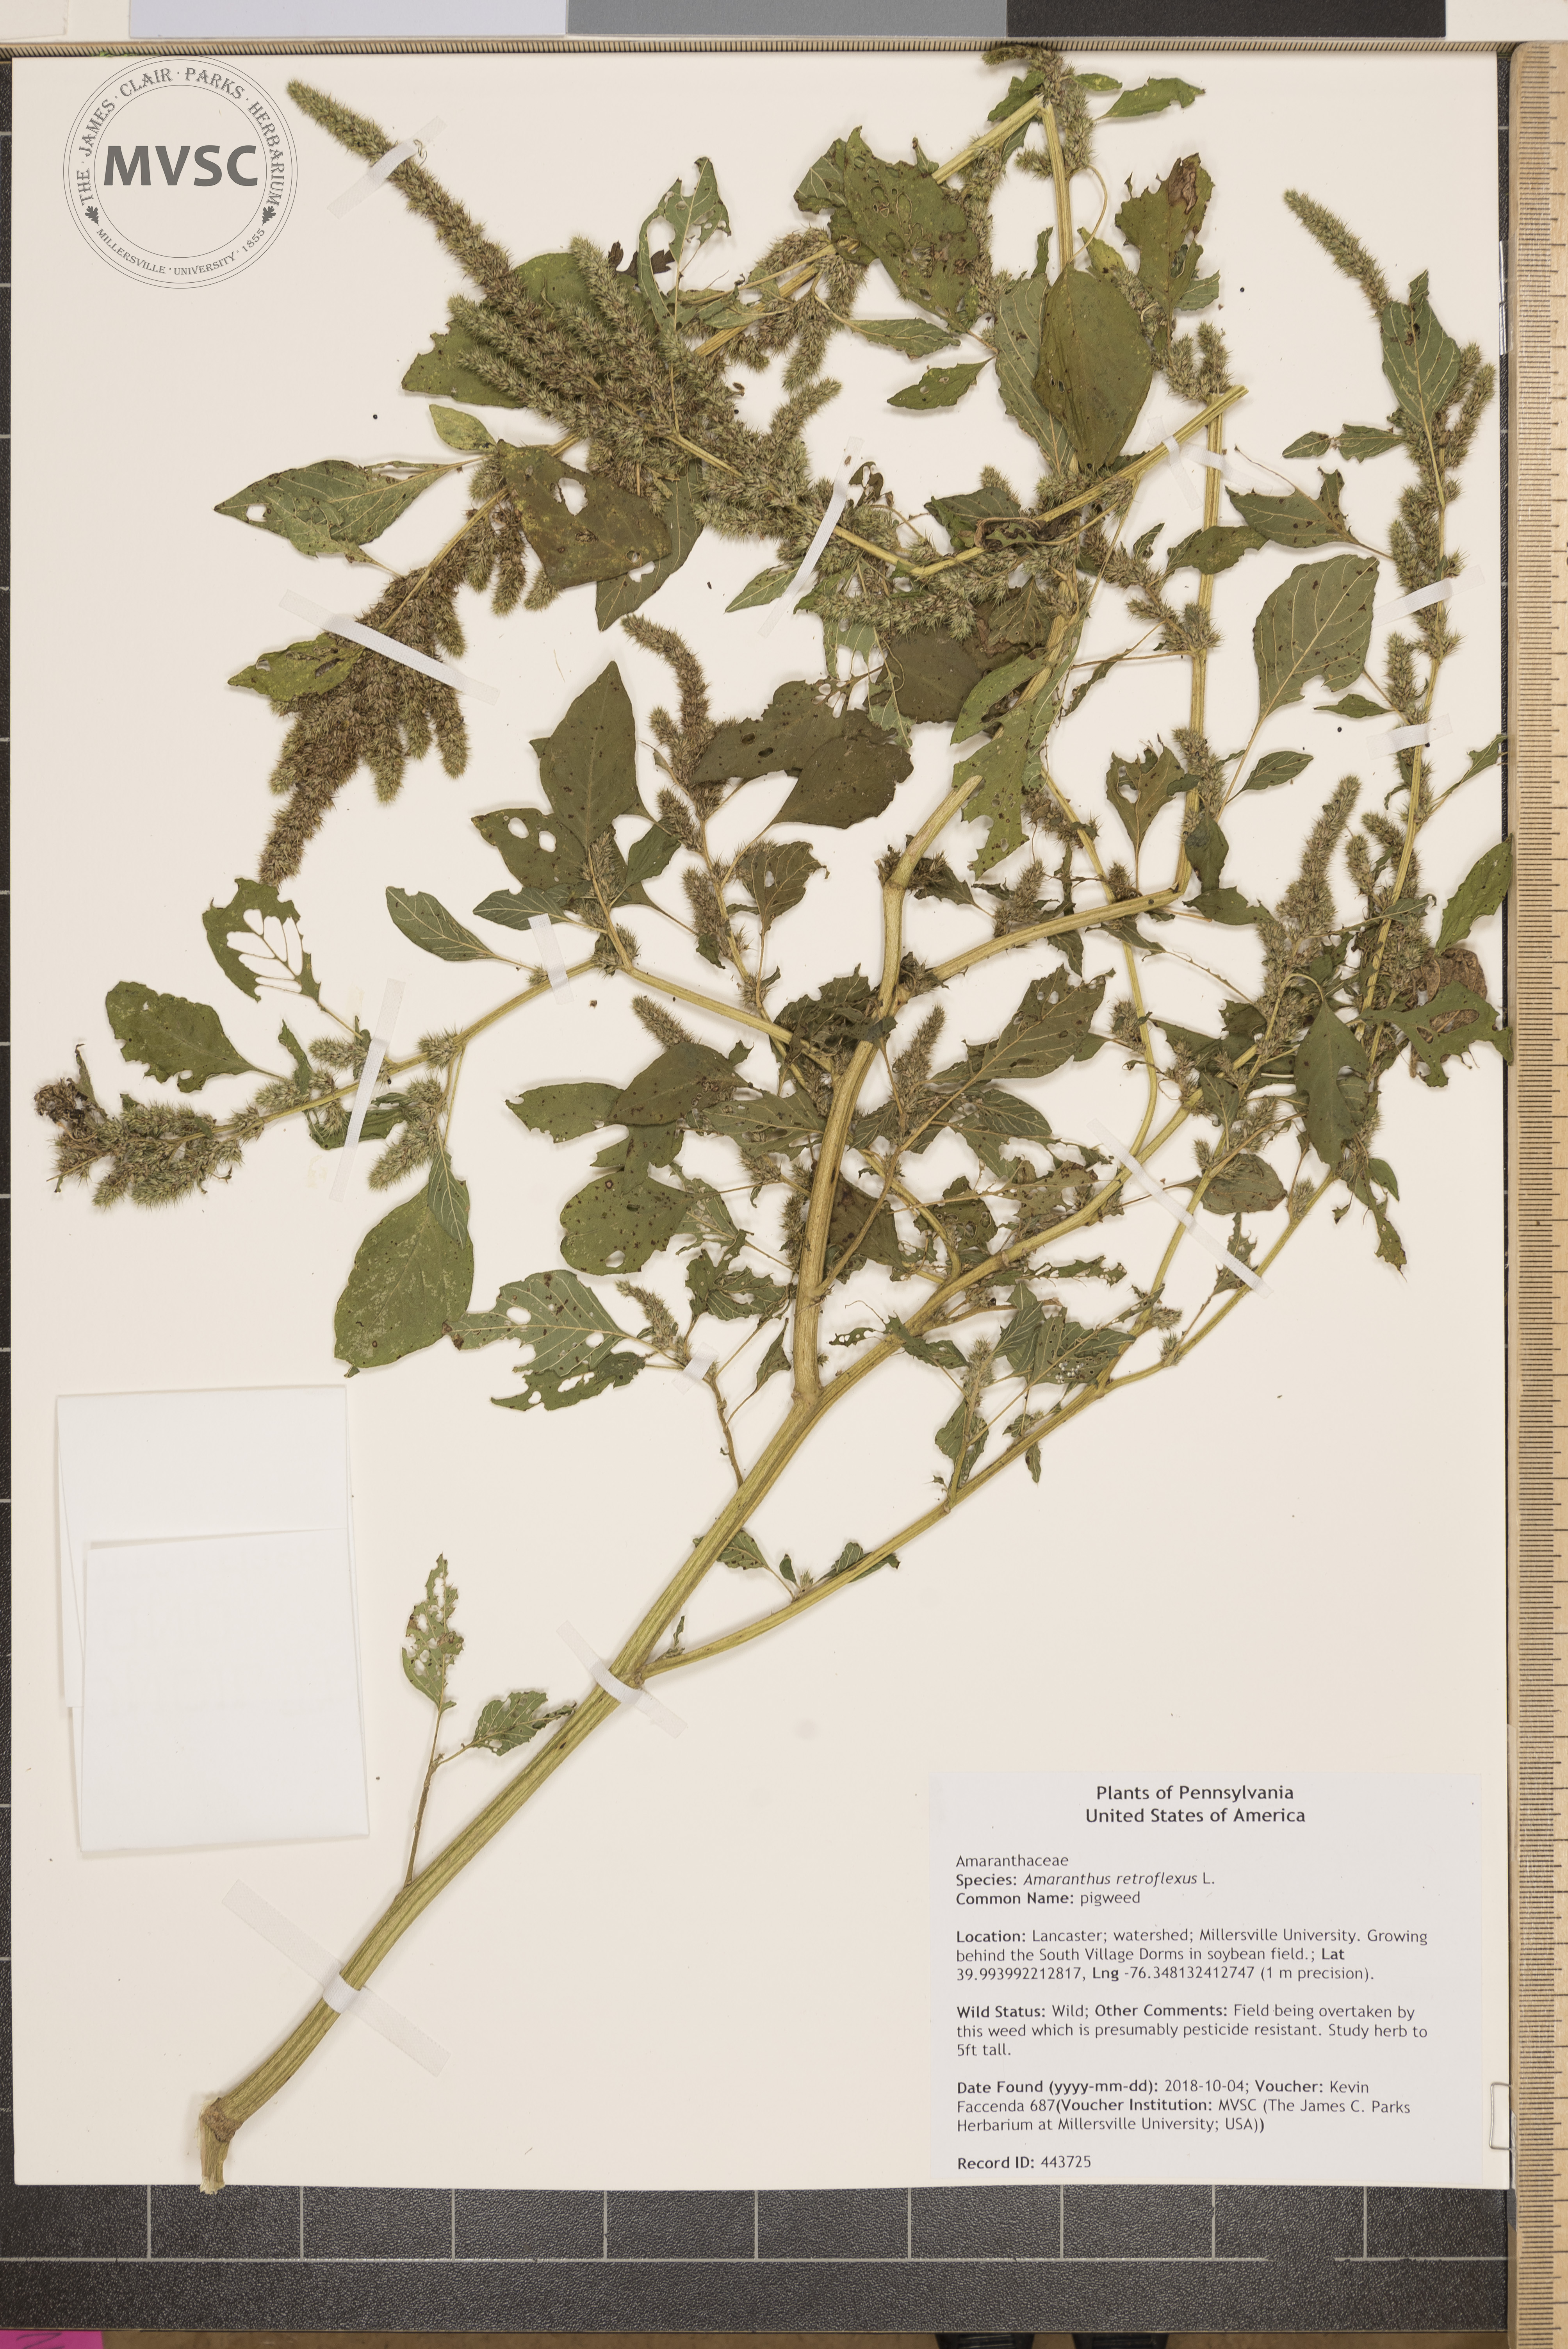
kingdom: Plantae
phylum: Tracheophyta
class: Magnoliopsida
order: Caryophyllales
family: Amaranthaceae
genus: Amaranthus
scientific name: Amaranthus retroflexus
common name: pigweed
